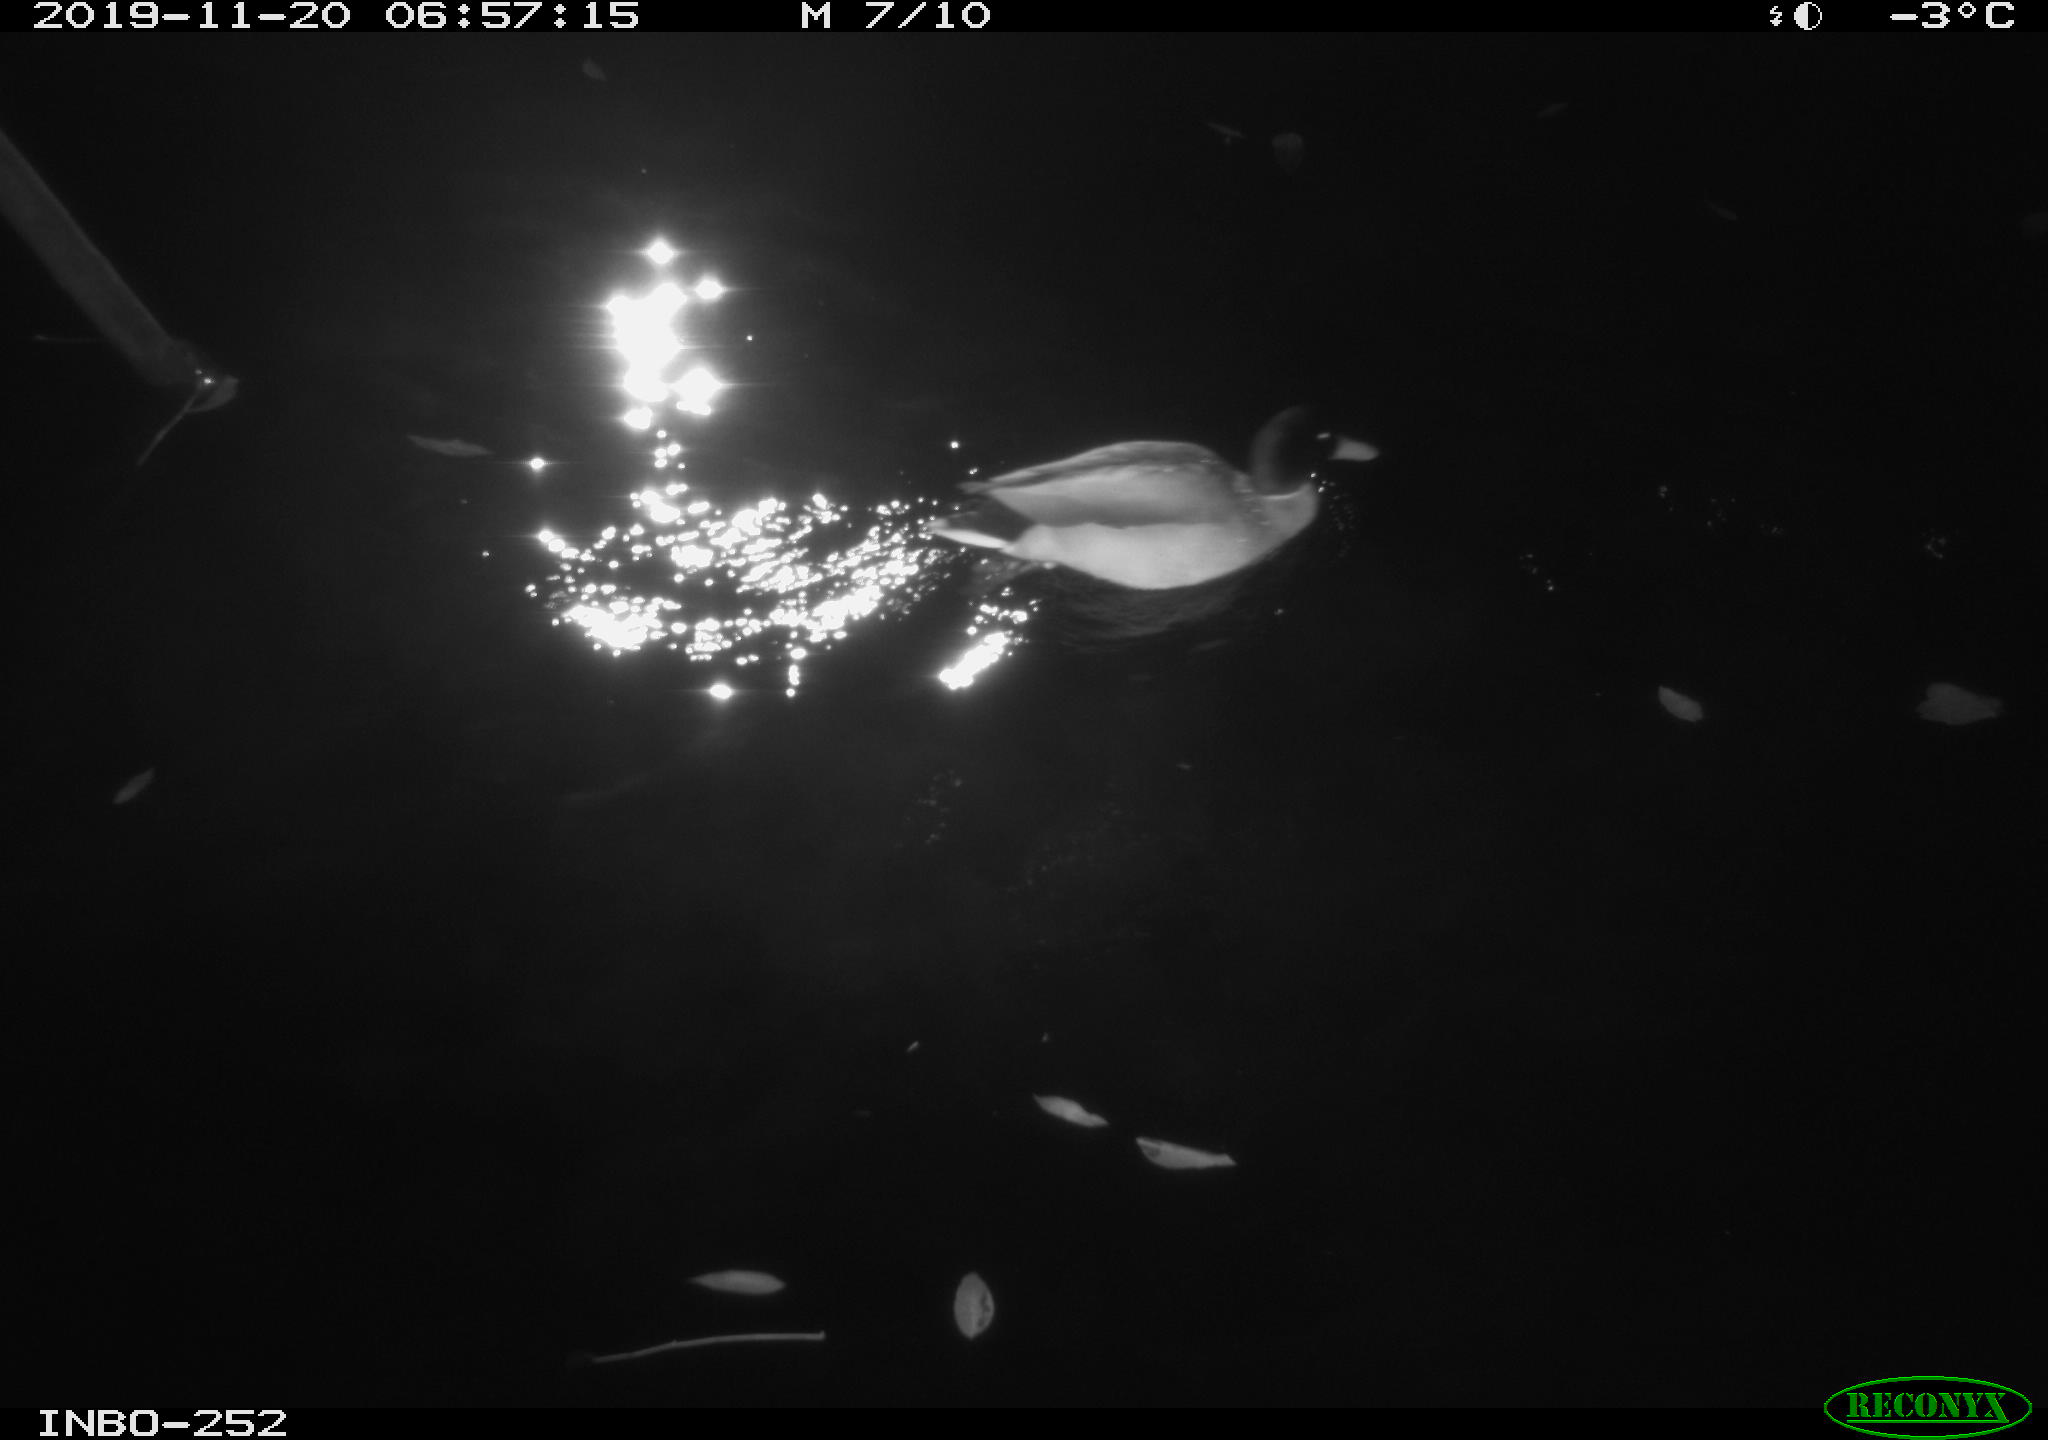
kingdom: Animalia
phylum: Chordata
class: Aves
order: Anseriformes
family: Anatidae
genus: Anas
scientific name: Anas platyrhynchos
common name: Mallard
